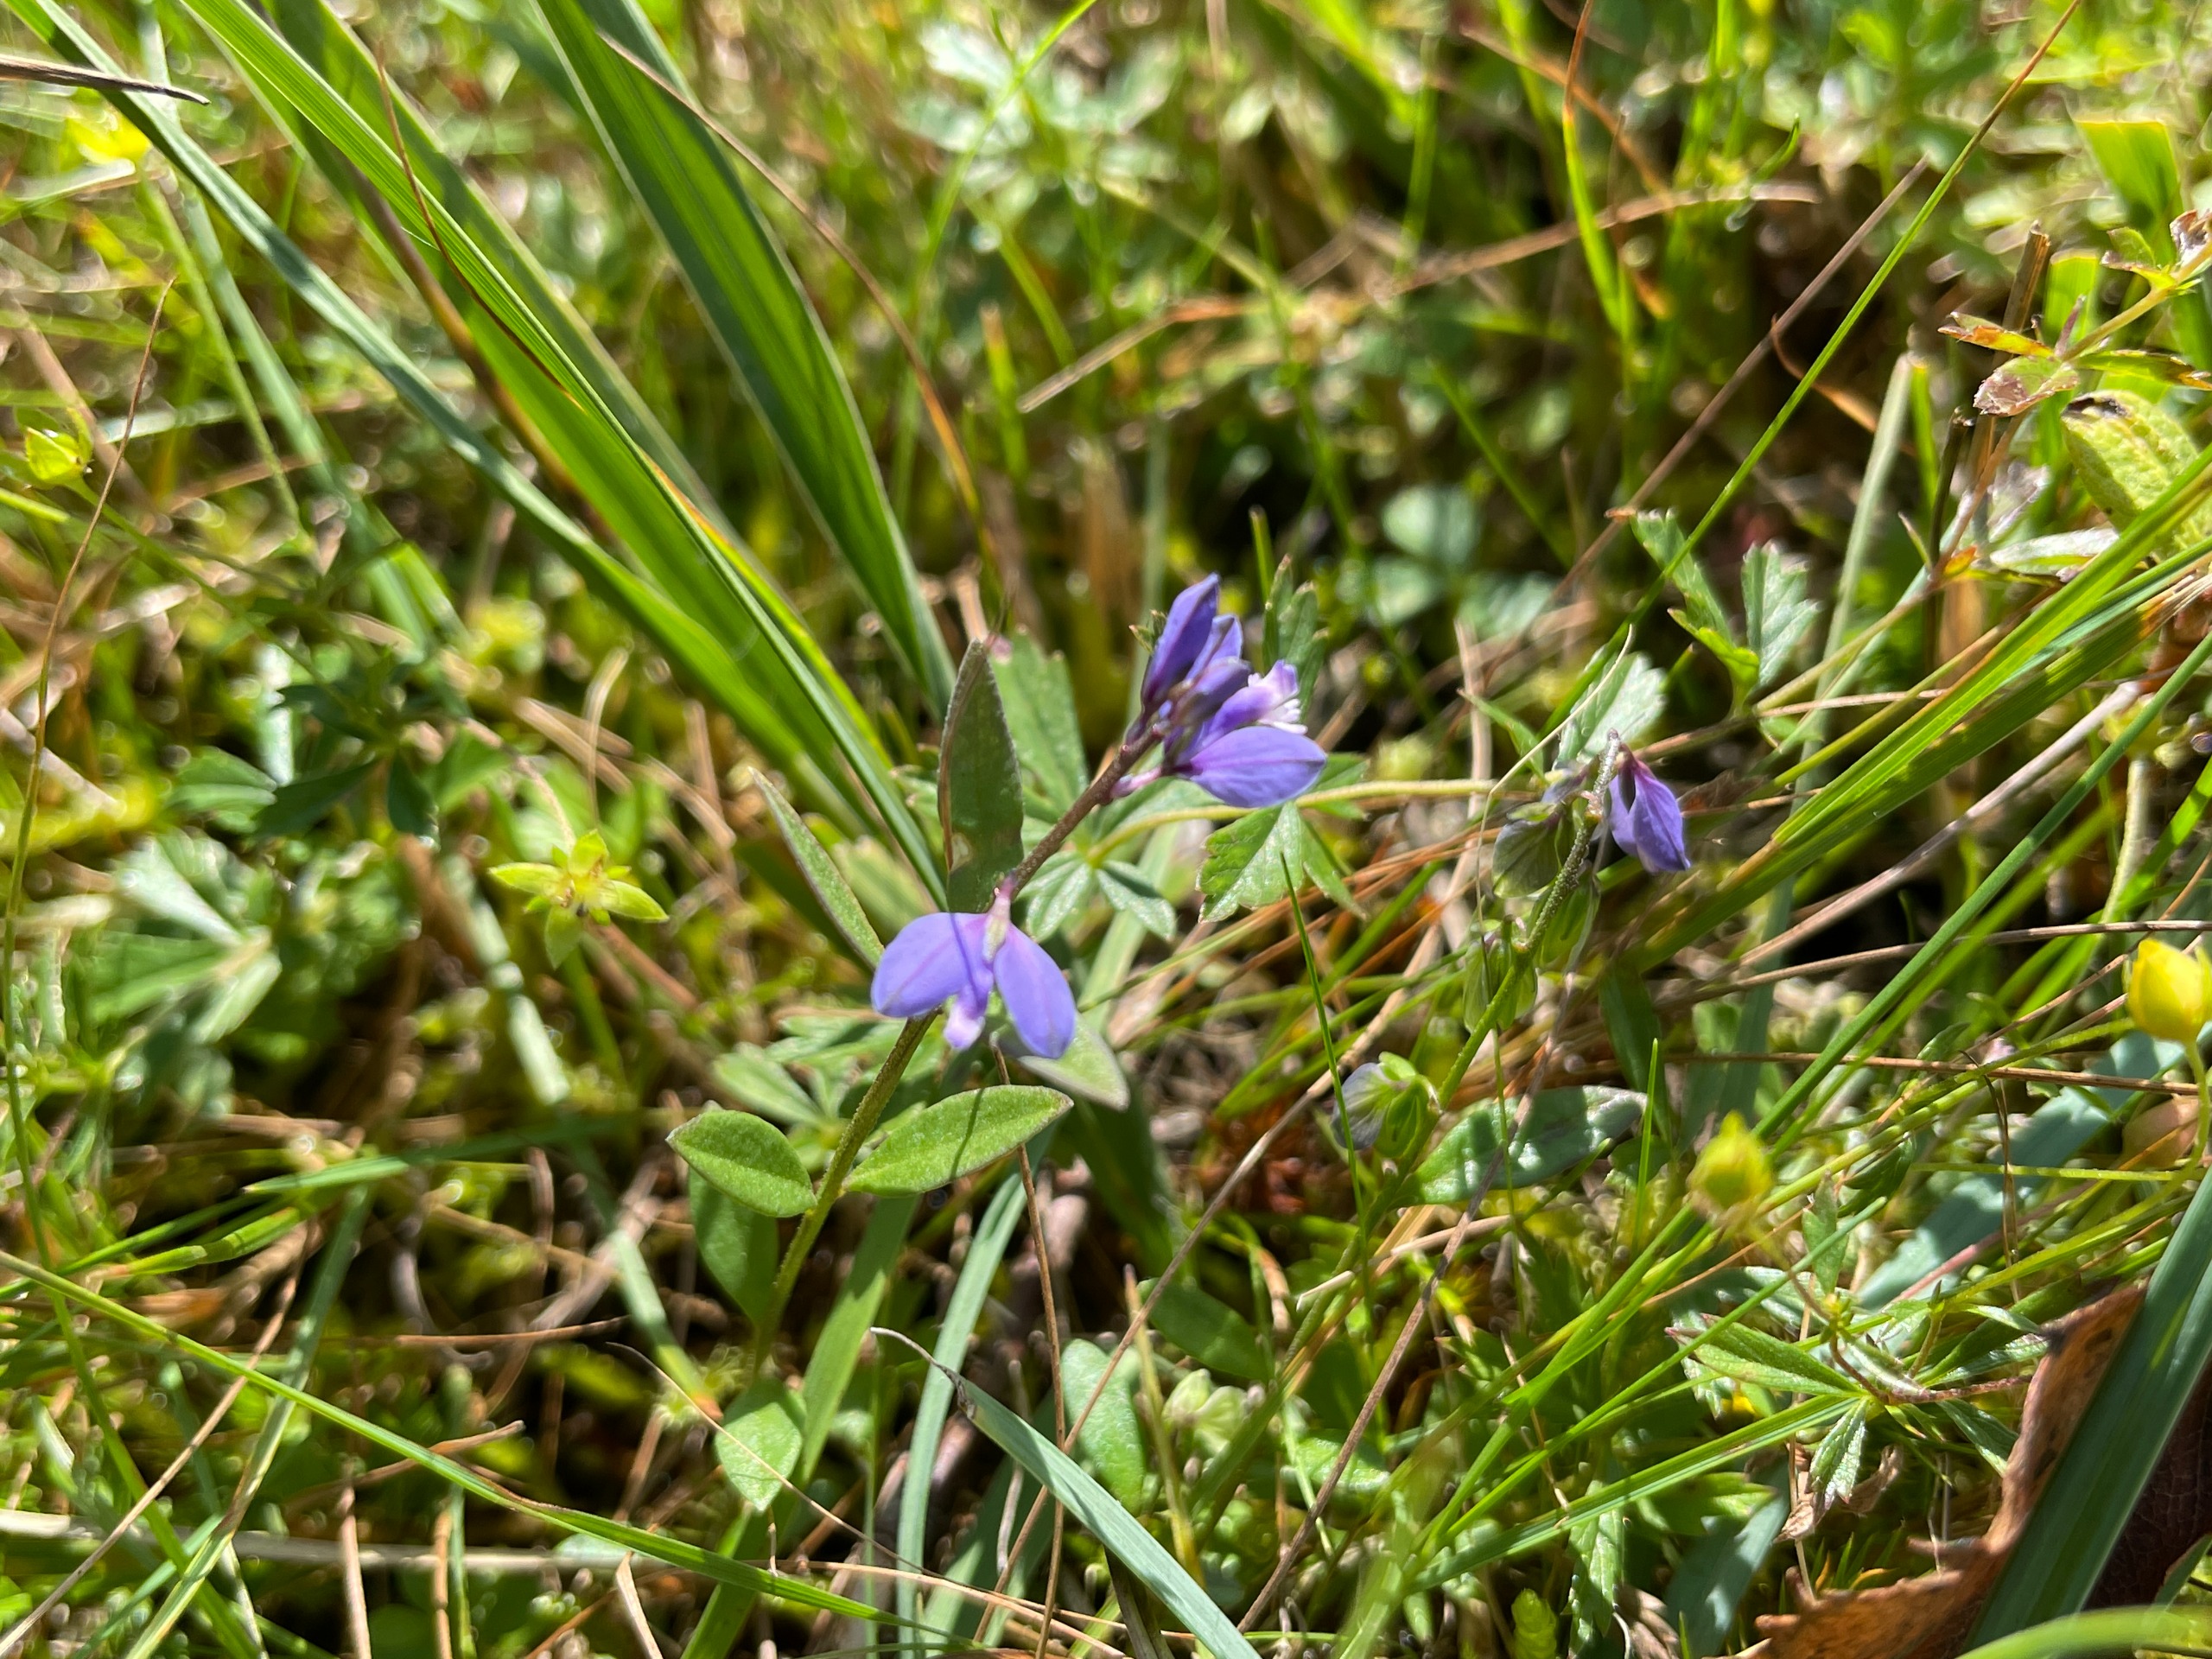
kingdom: Plantae
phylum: Tracheophyta
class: Magnoliopsida
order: Fabales
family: Polygalaceae
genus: Polygala
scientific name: Polygala serpyllifolia
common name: Spæd mælkeurt
